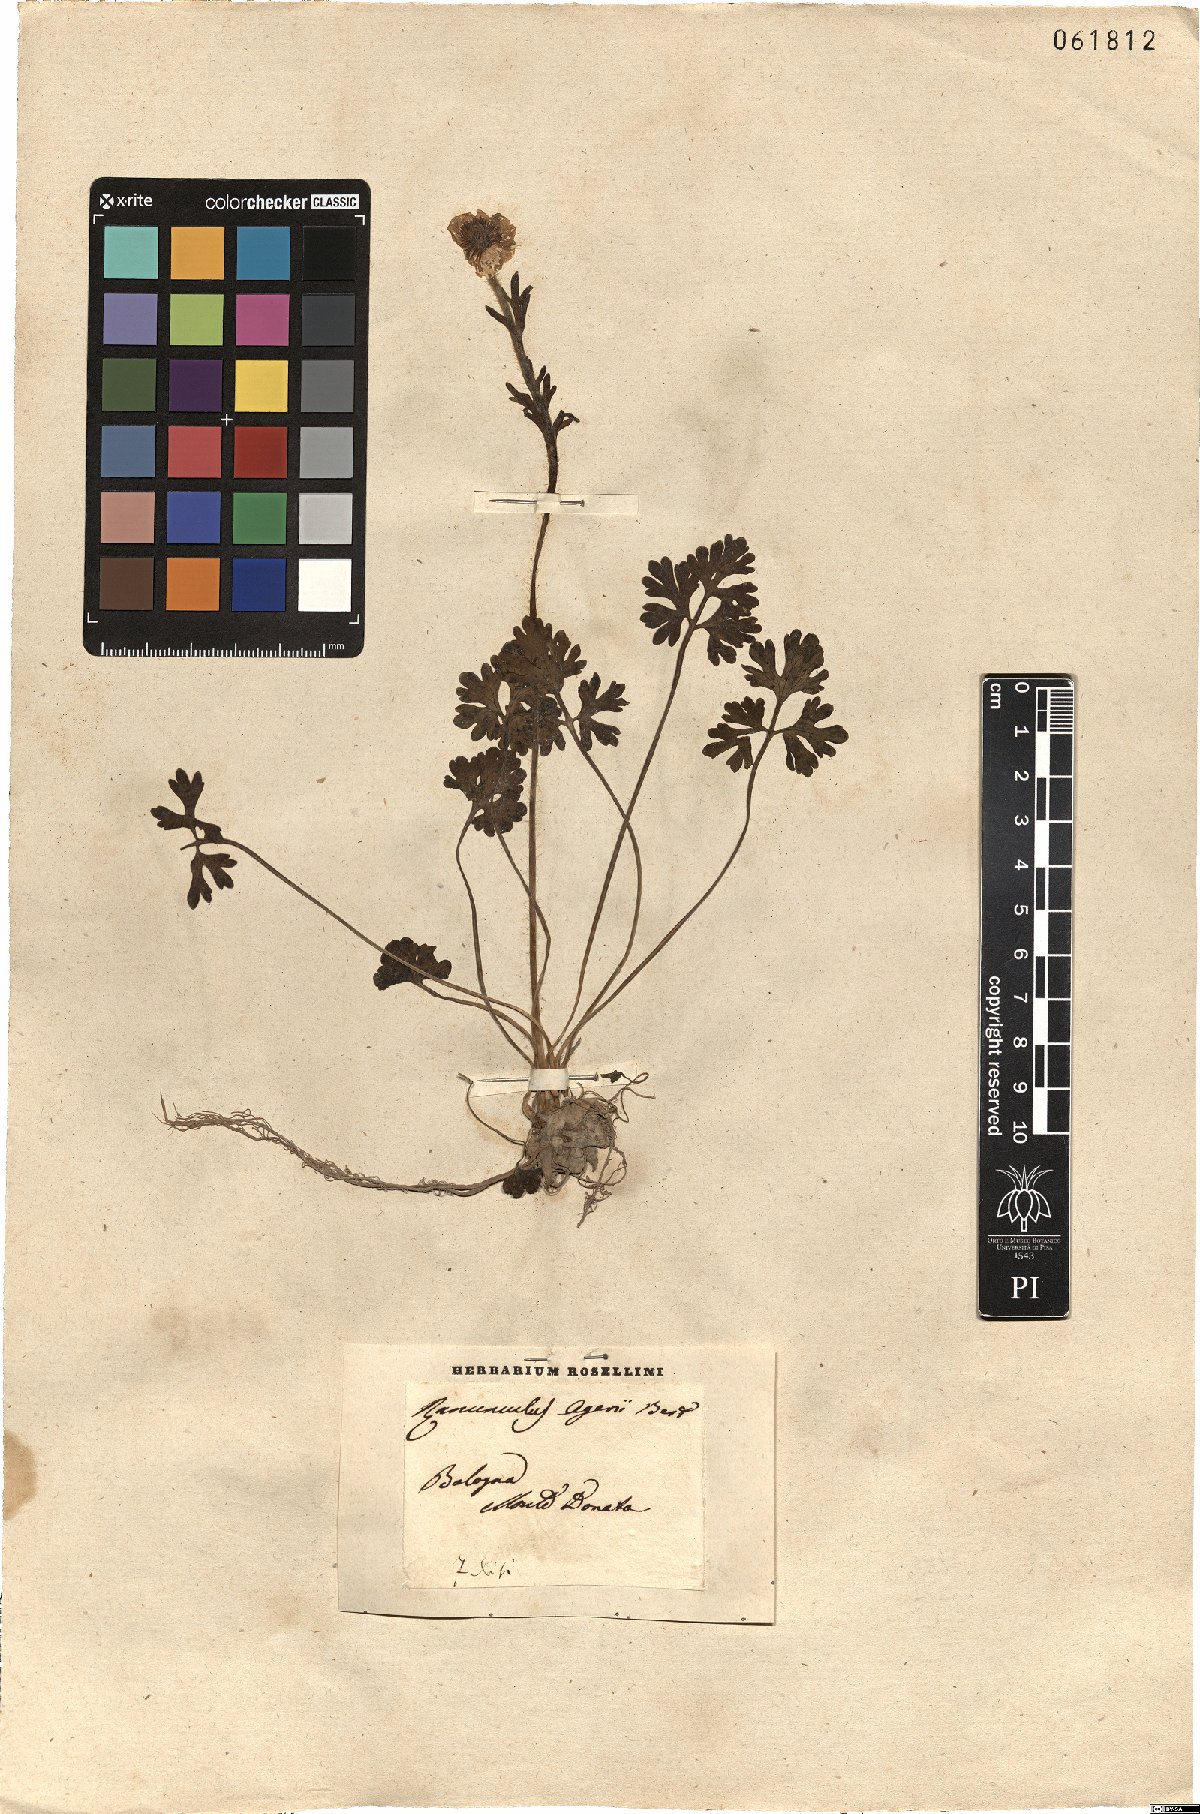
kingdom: Plantae
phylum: Tracheophyta
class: Magnoliopsida
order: Ranunculales
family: Ranunculaceae
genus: Ranunculus
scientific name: Ranunculus gracilis
